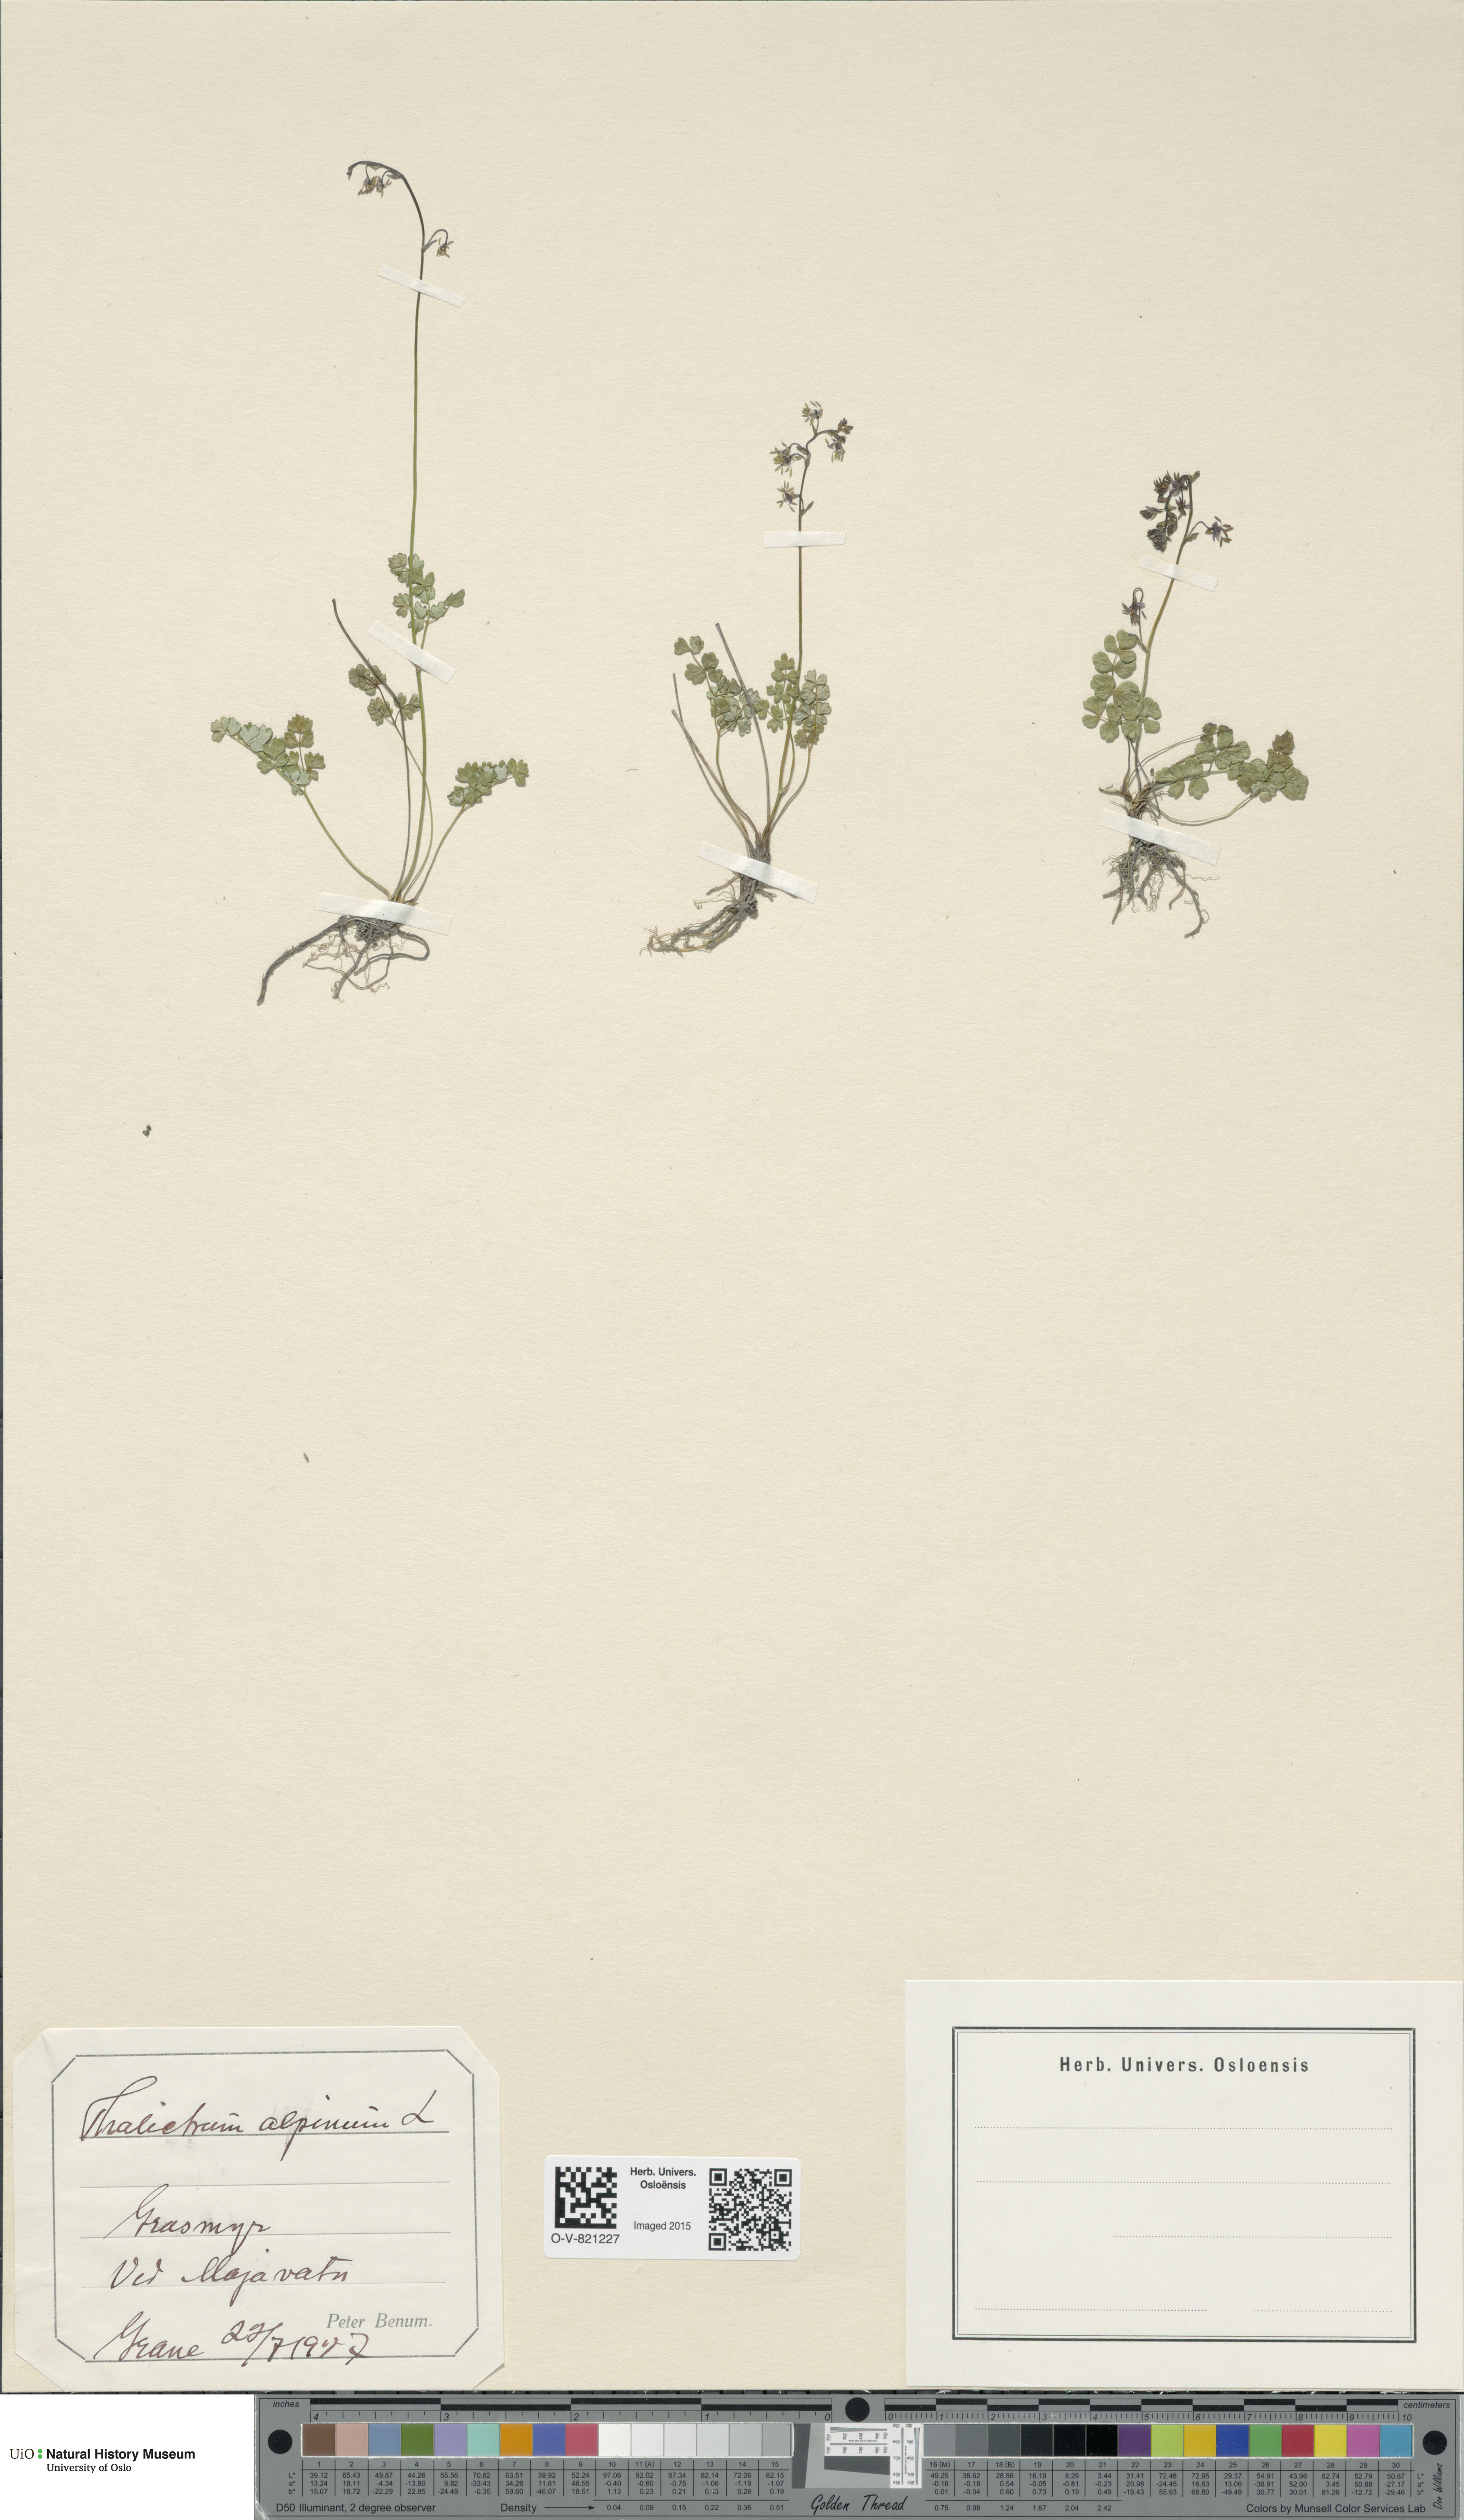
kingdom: Plantae
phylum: Tracheophyta
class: Magnoliopsida
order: Ranunculales
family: Ranunculaceae
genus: Thalictrum
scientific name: Thalictrum alpinum
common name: Alpine meadow-rue
